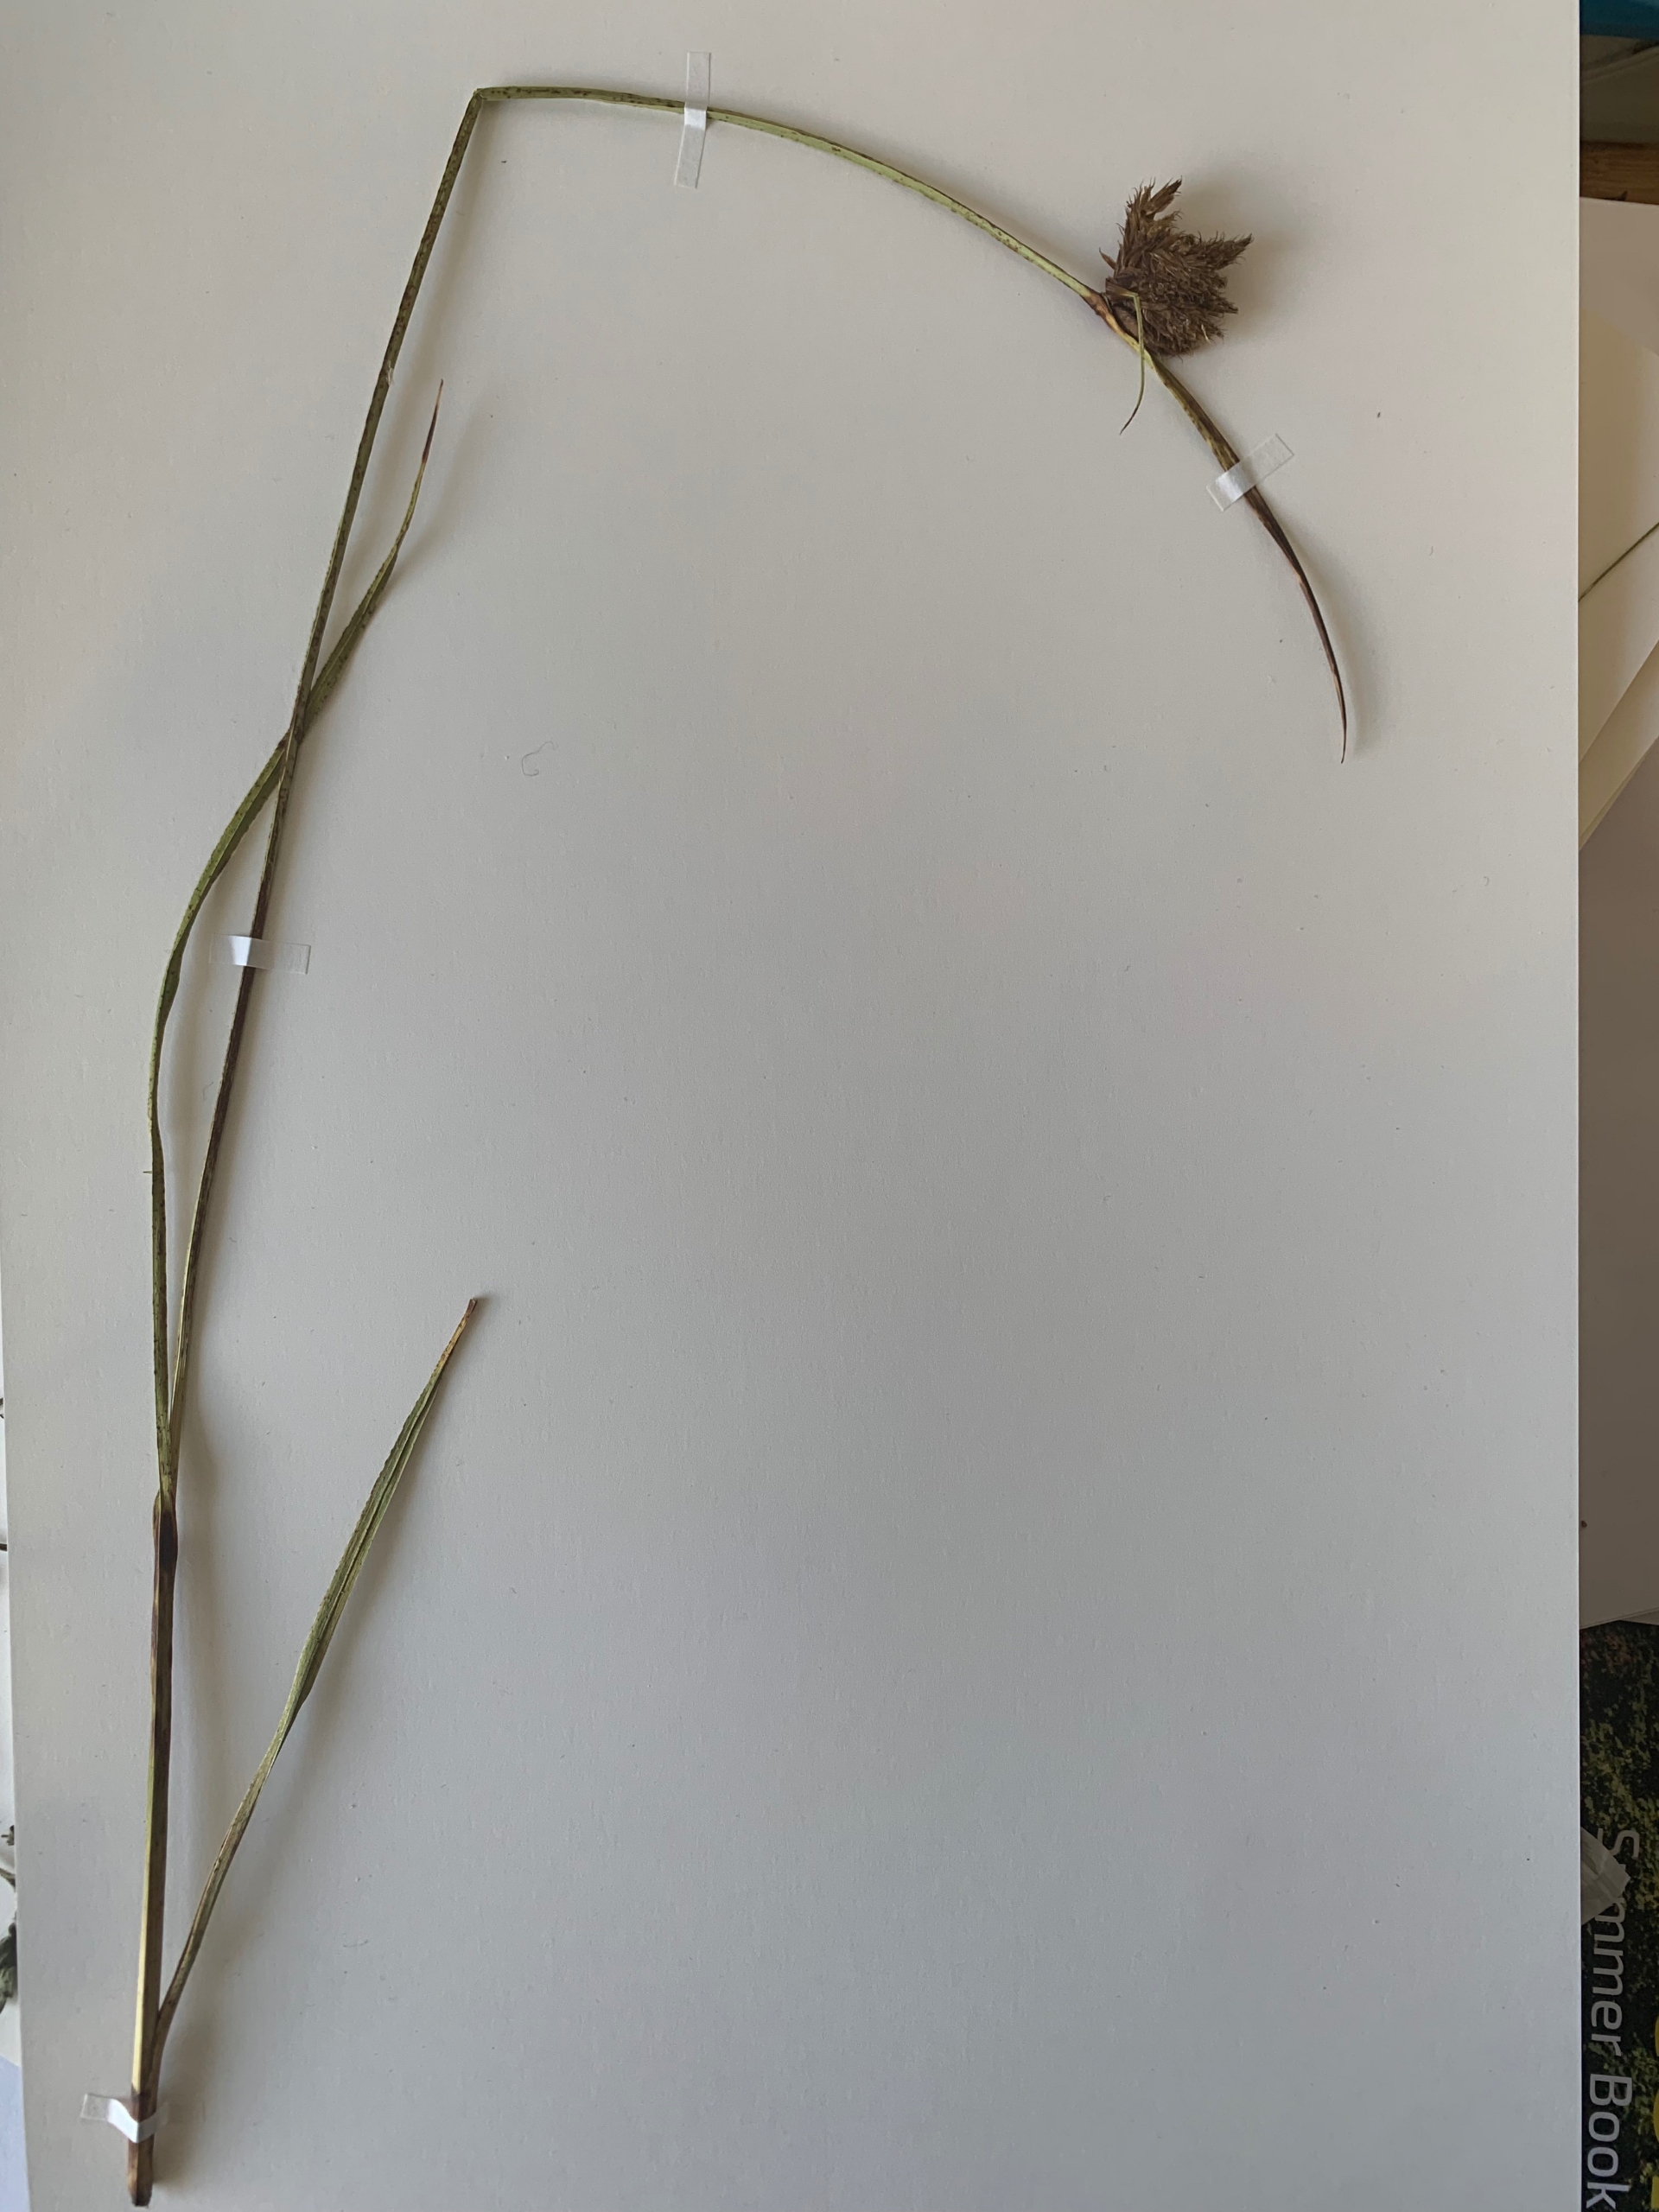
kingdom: Plantae
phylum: Tracheophyta
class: Liliopsida
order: Poales
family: Cyperaceae
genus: Bolboschoenus
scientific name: Bolboschoenus maritimus
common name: Strand-kogleaks
